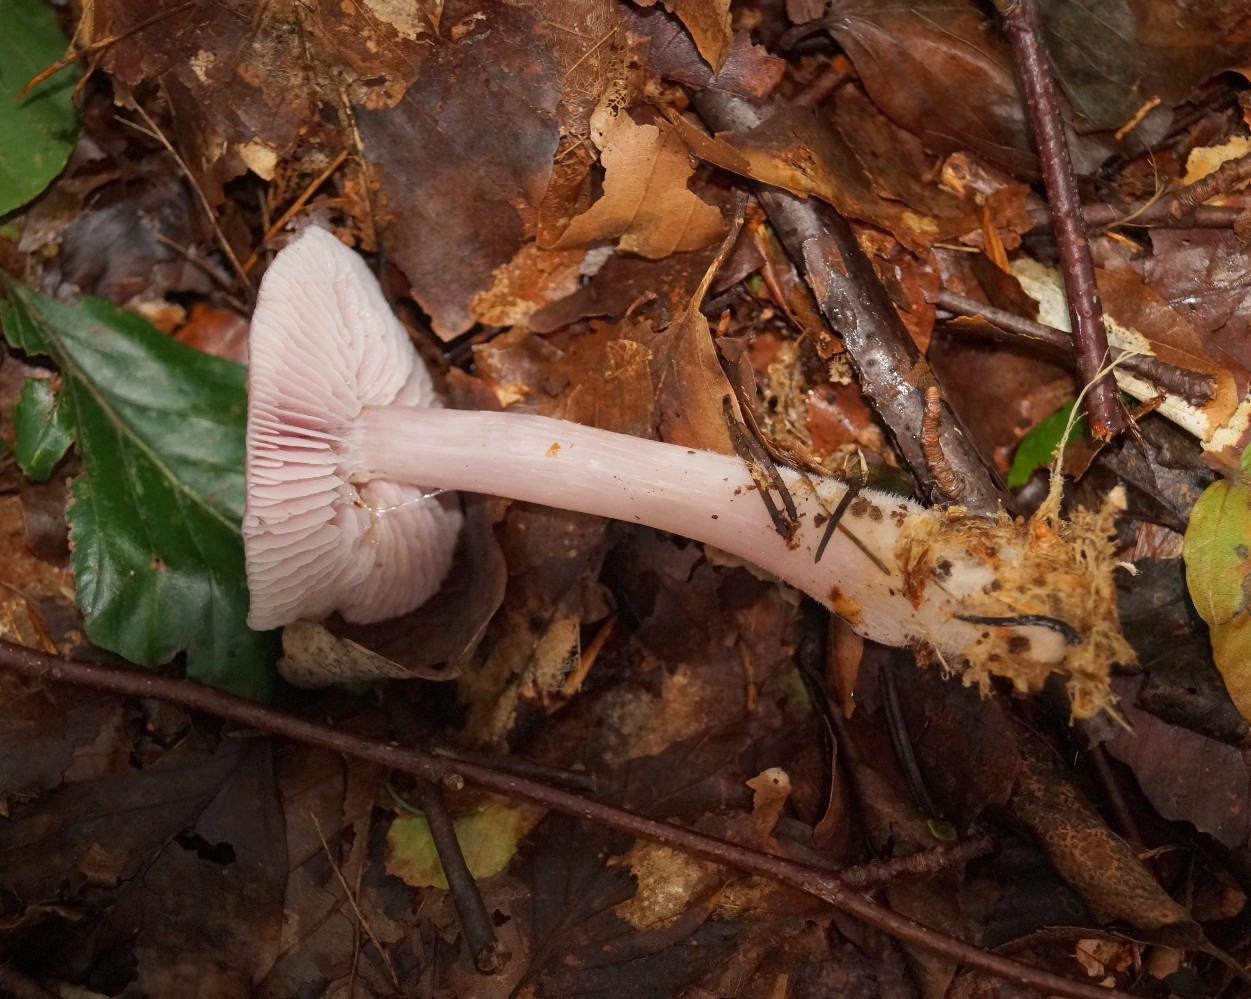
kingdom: Fungi
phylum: Basidiomycota
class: Agaricomycetes
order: Agaricales
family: Mycenaceae
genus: Mycena
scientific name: Mycena rosea
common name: rosa huesvamp
